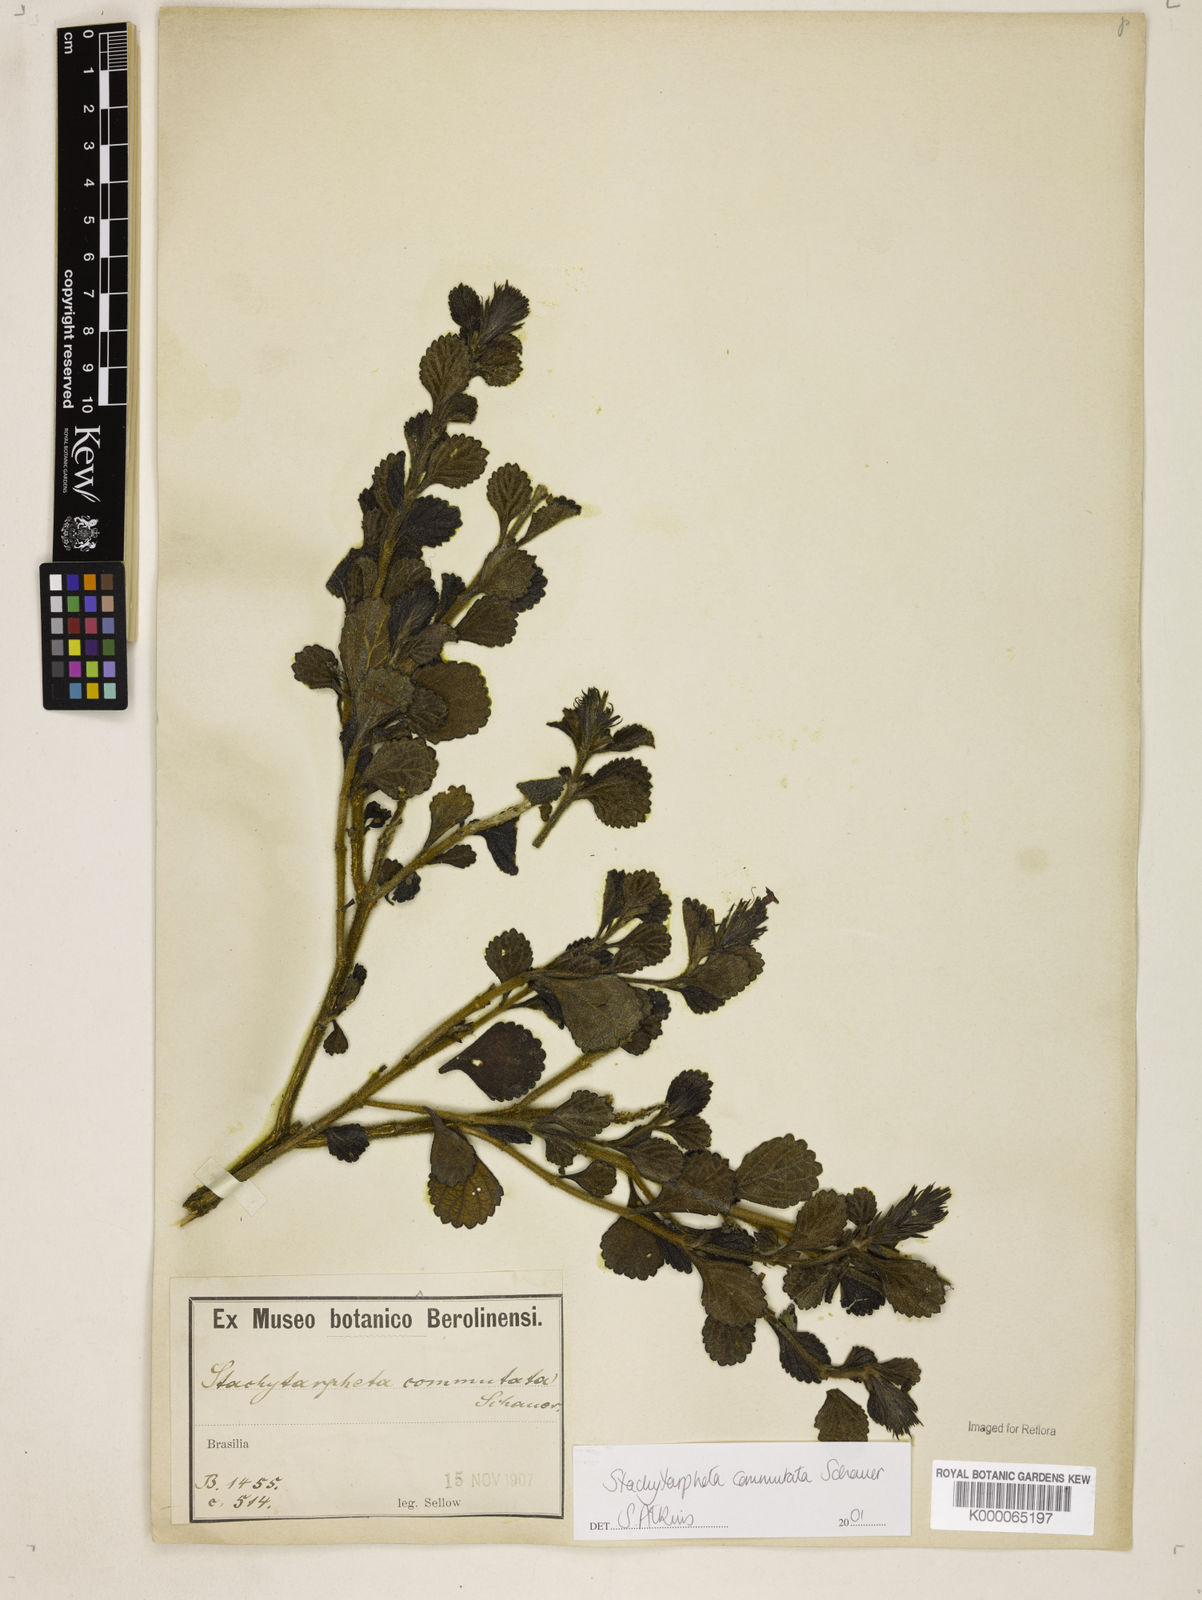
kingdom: Plantae
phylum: Tracheophyta
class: Magnoliopsida
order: Lamiales
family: Verbenaceae
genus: Stachytarpheta
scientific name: Stachytarpheta commutata
